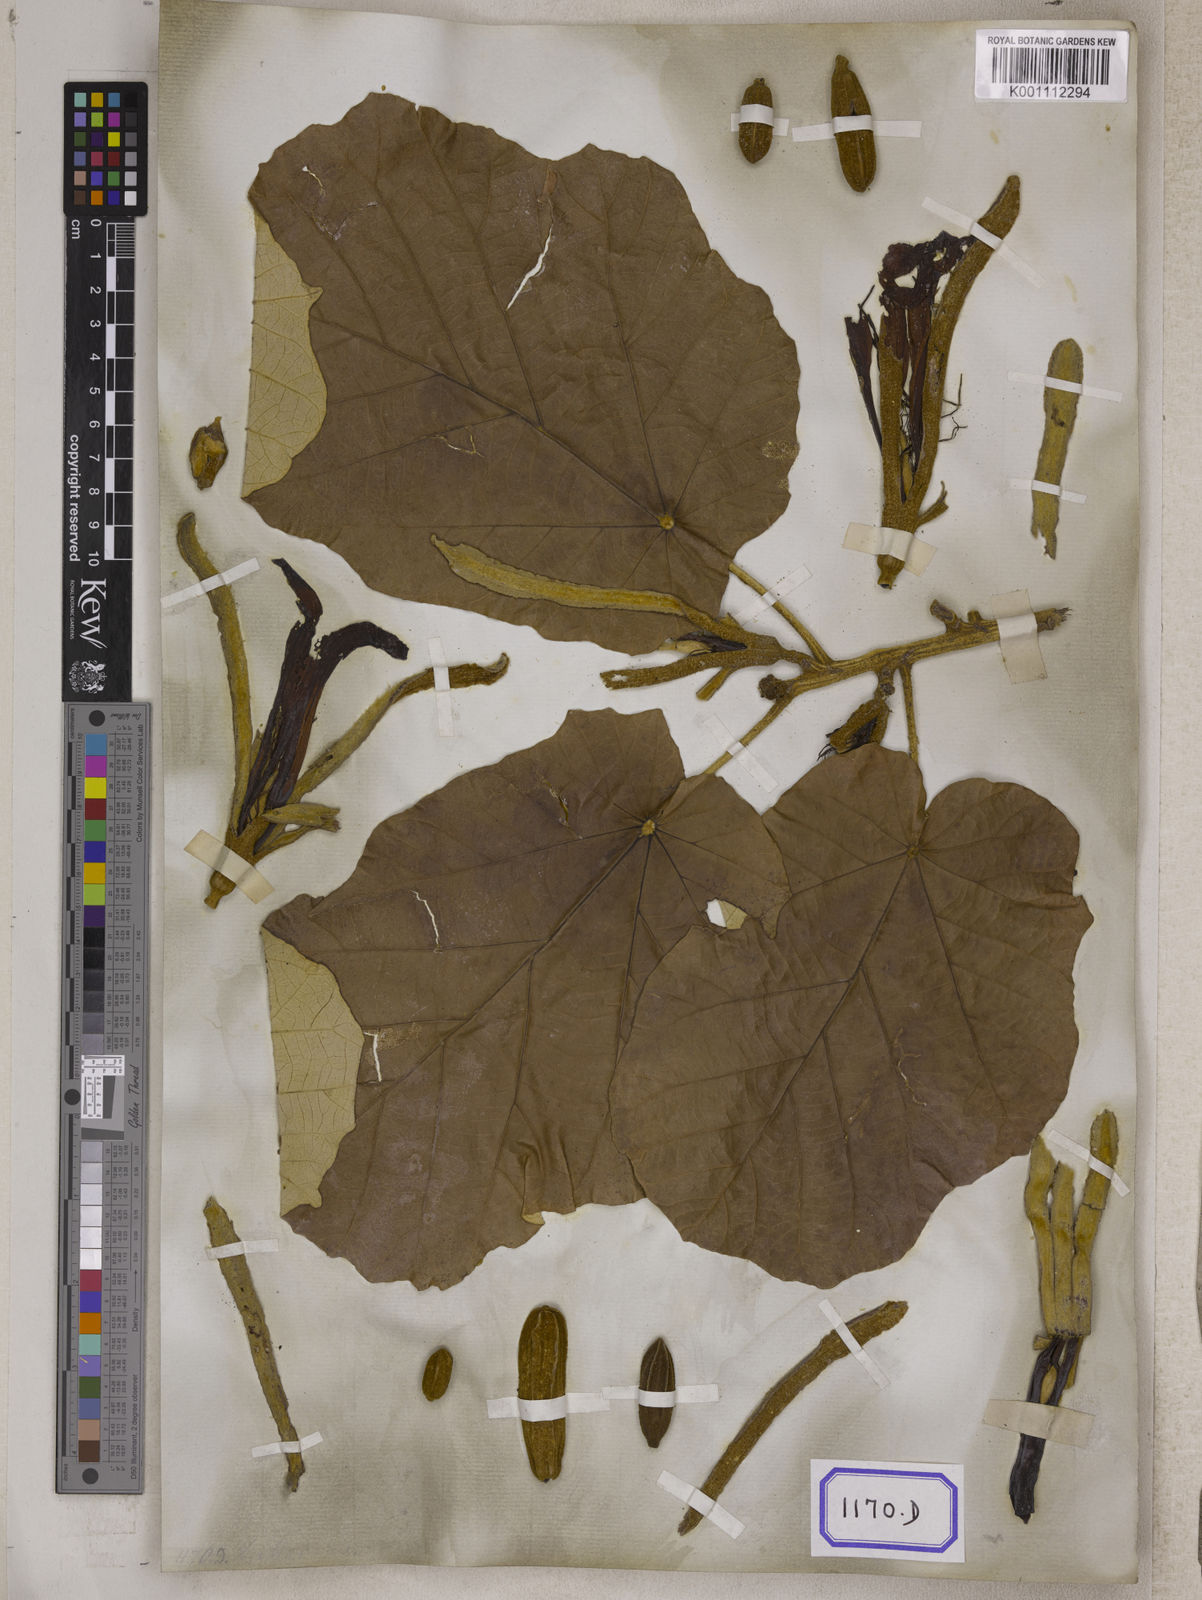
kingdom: Plantae
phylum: Tracheophyta
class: Magnoliopsida
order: Malvales
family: Malvaceae
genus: Pterospermum
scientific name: Pterospermum
